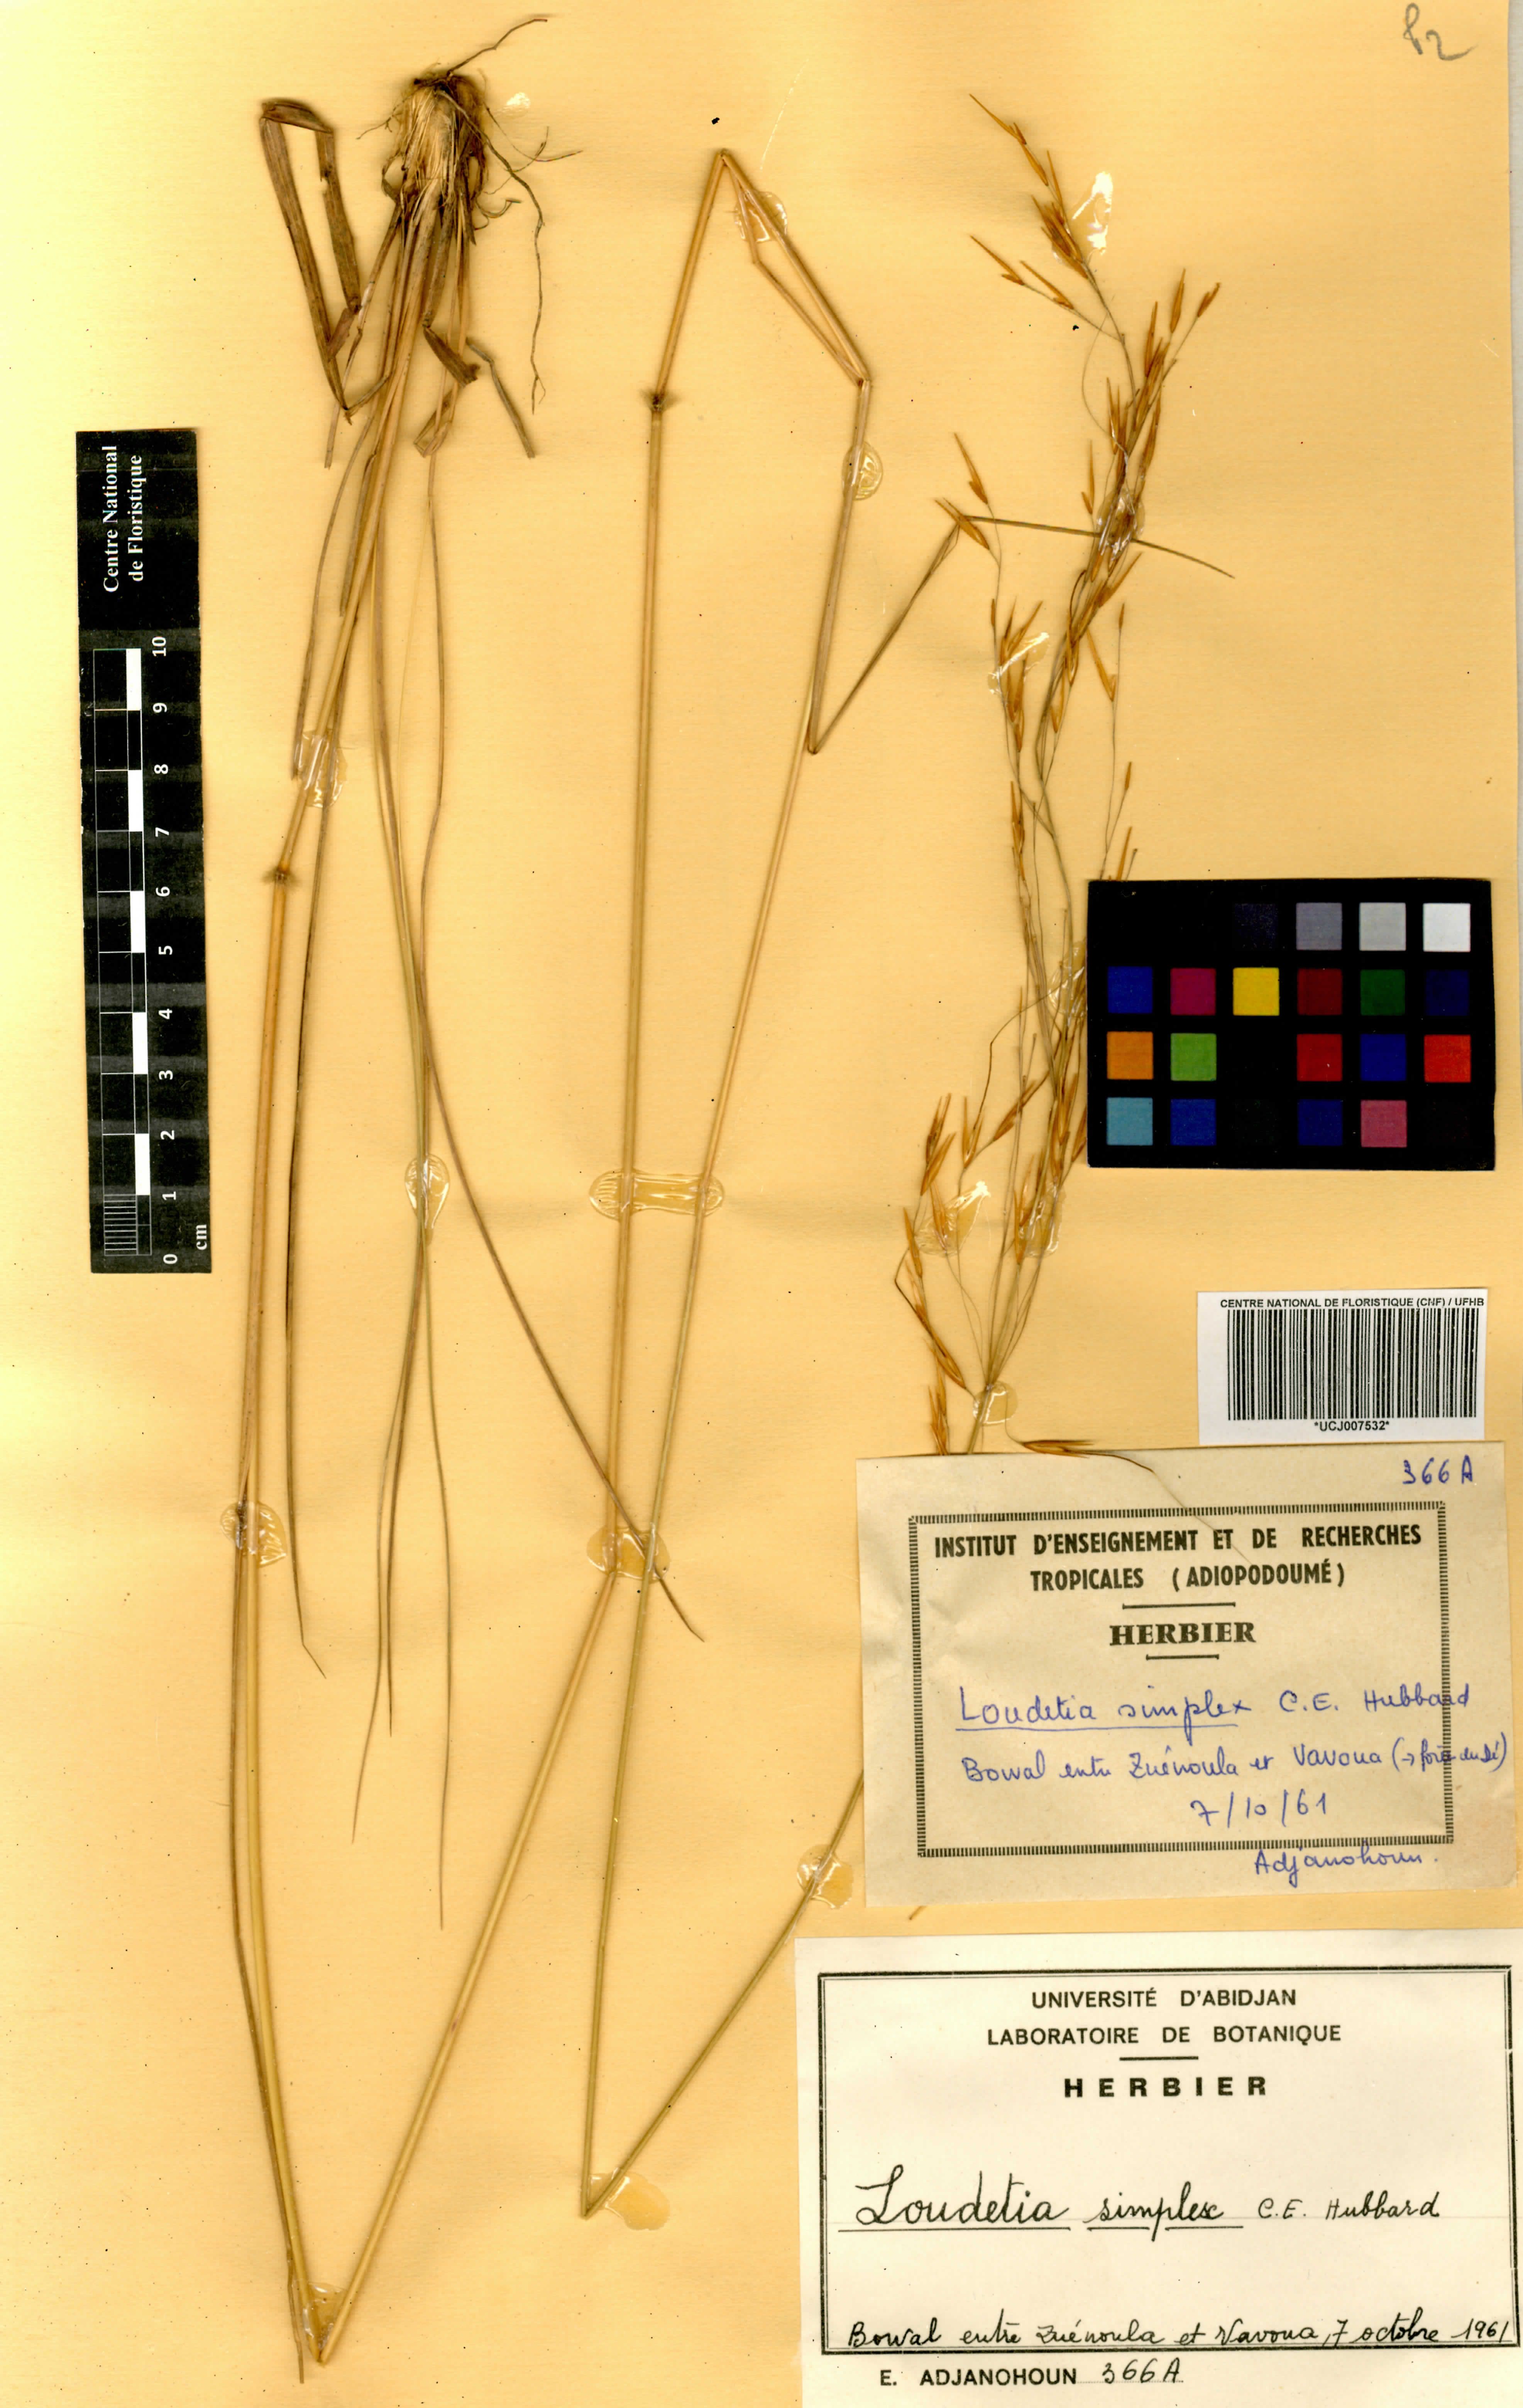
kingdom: Plantae
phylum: Tracheophyta
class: Liliopsida
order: Poales
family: Poaceae
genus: Loudetia
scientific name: Loudetia simplex
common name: Common russet grass
